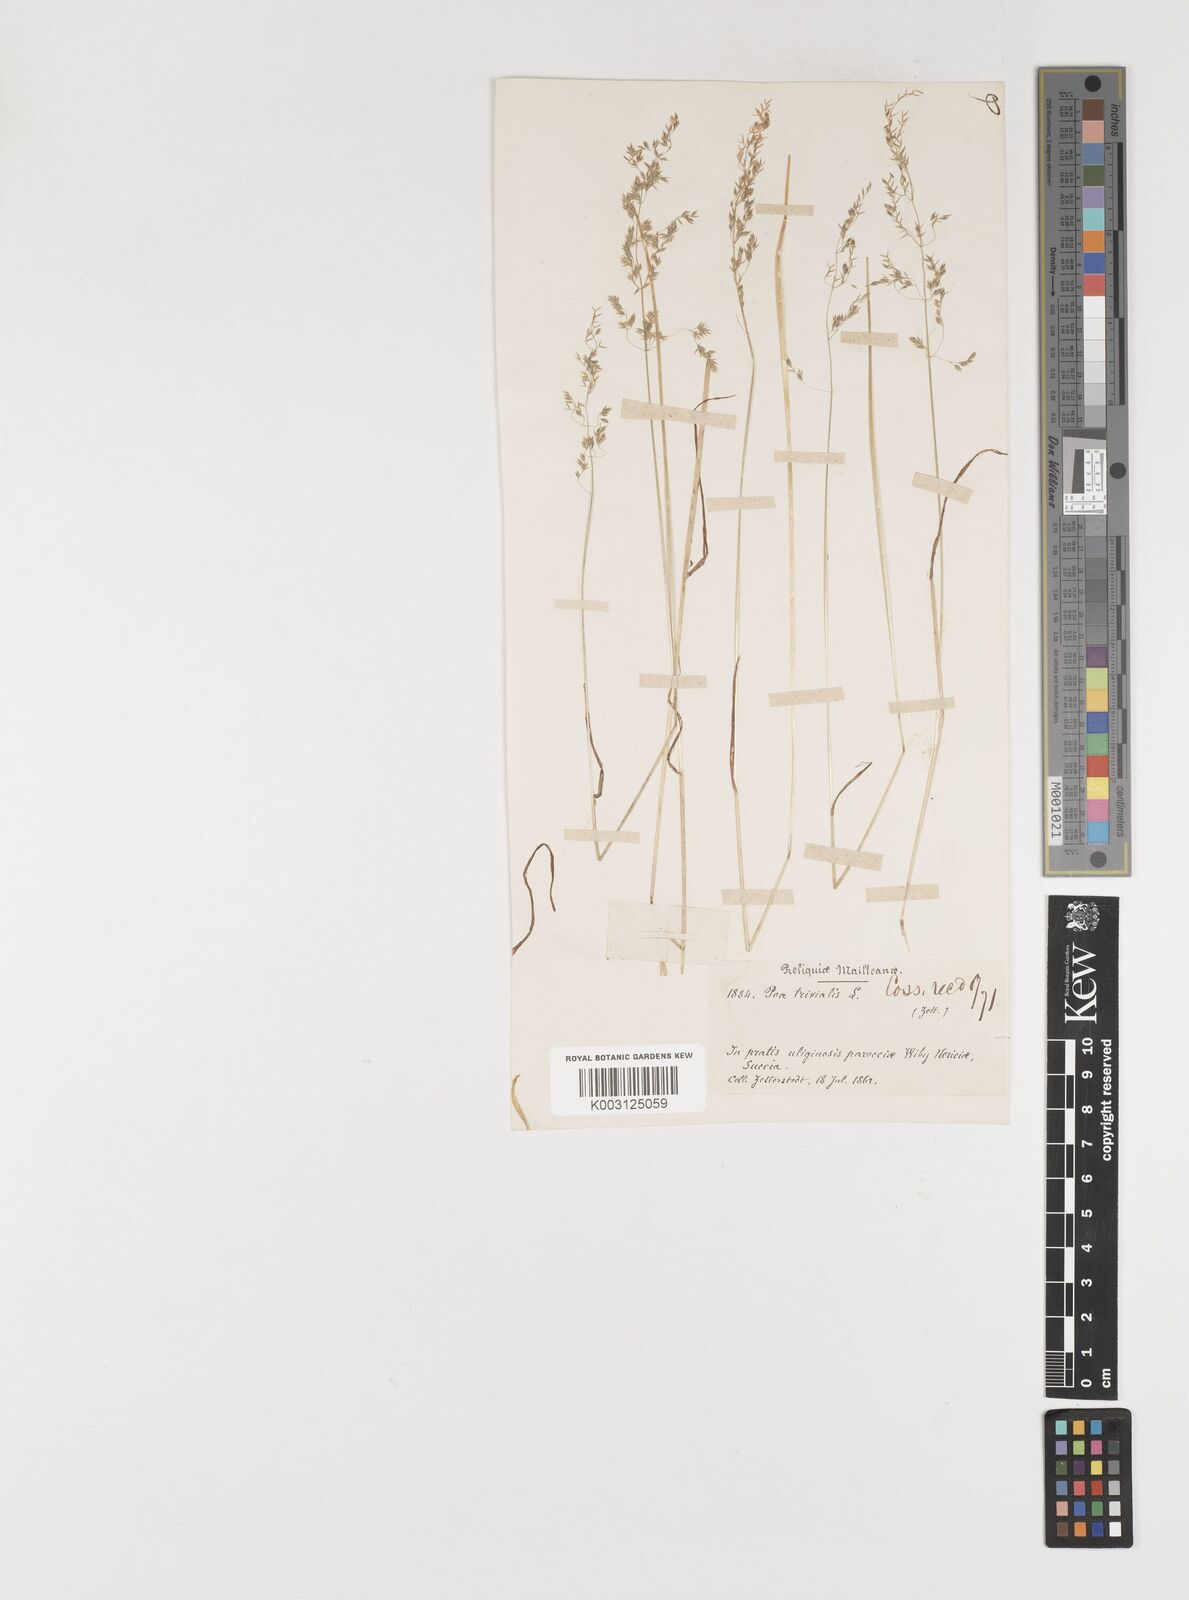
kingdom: Plantae
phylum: Tracheophyta
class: Liliopsida
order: Poales
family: Poaceae
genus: Poa
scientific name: Poa trivialis
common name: Rough bluegrass
